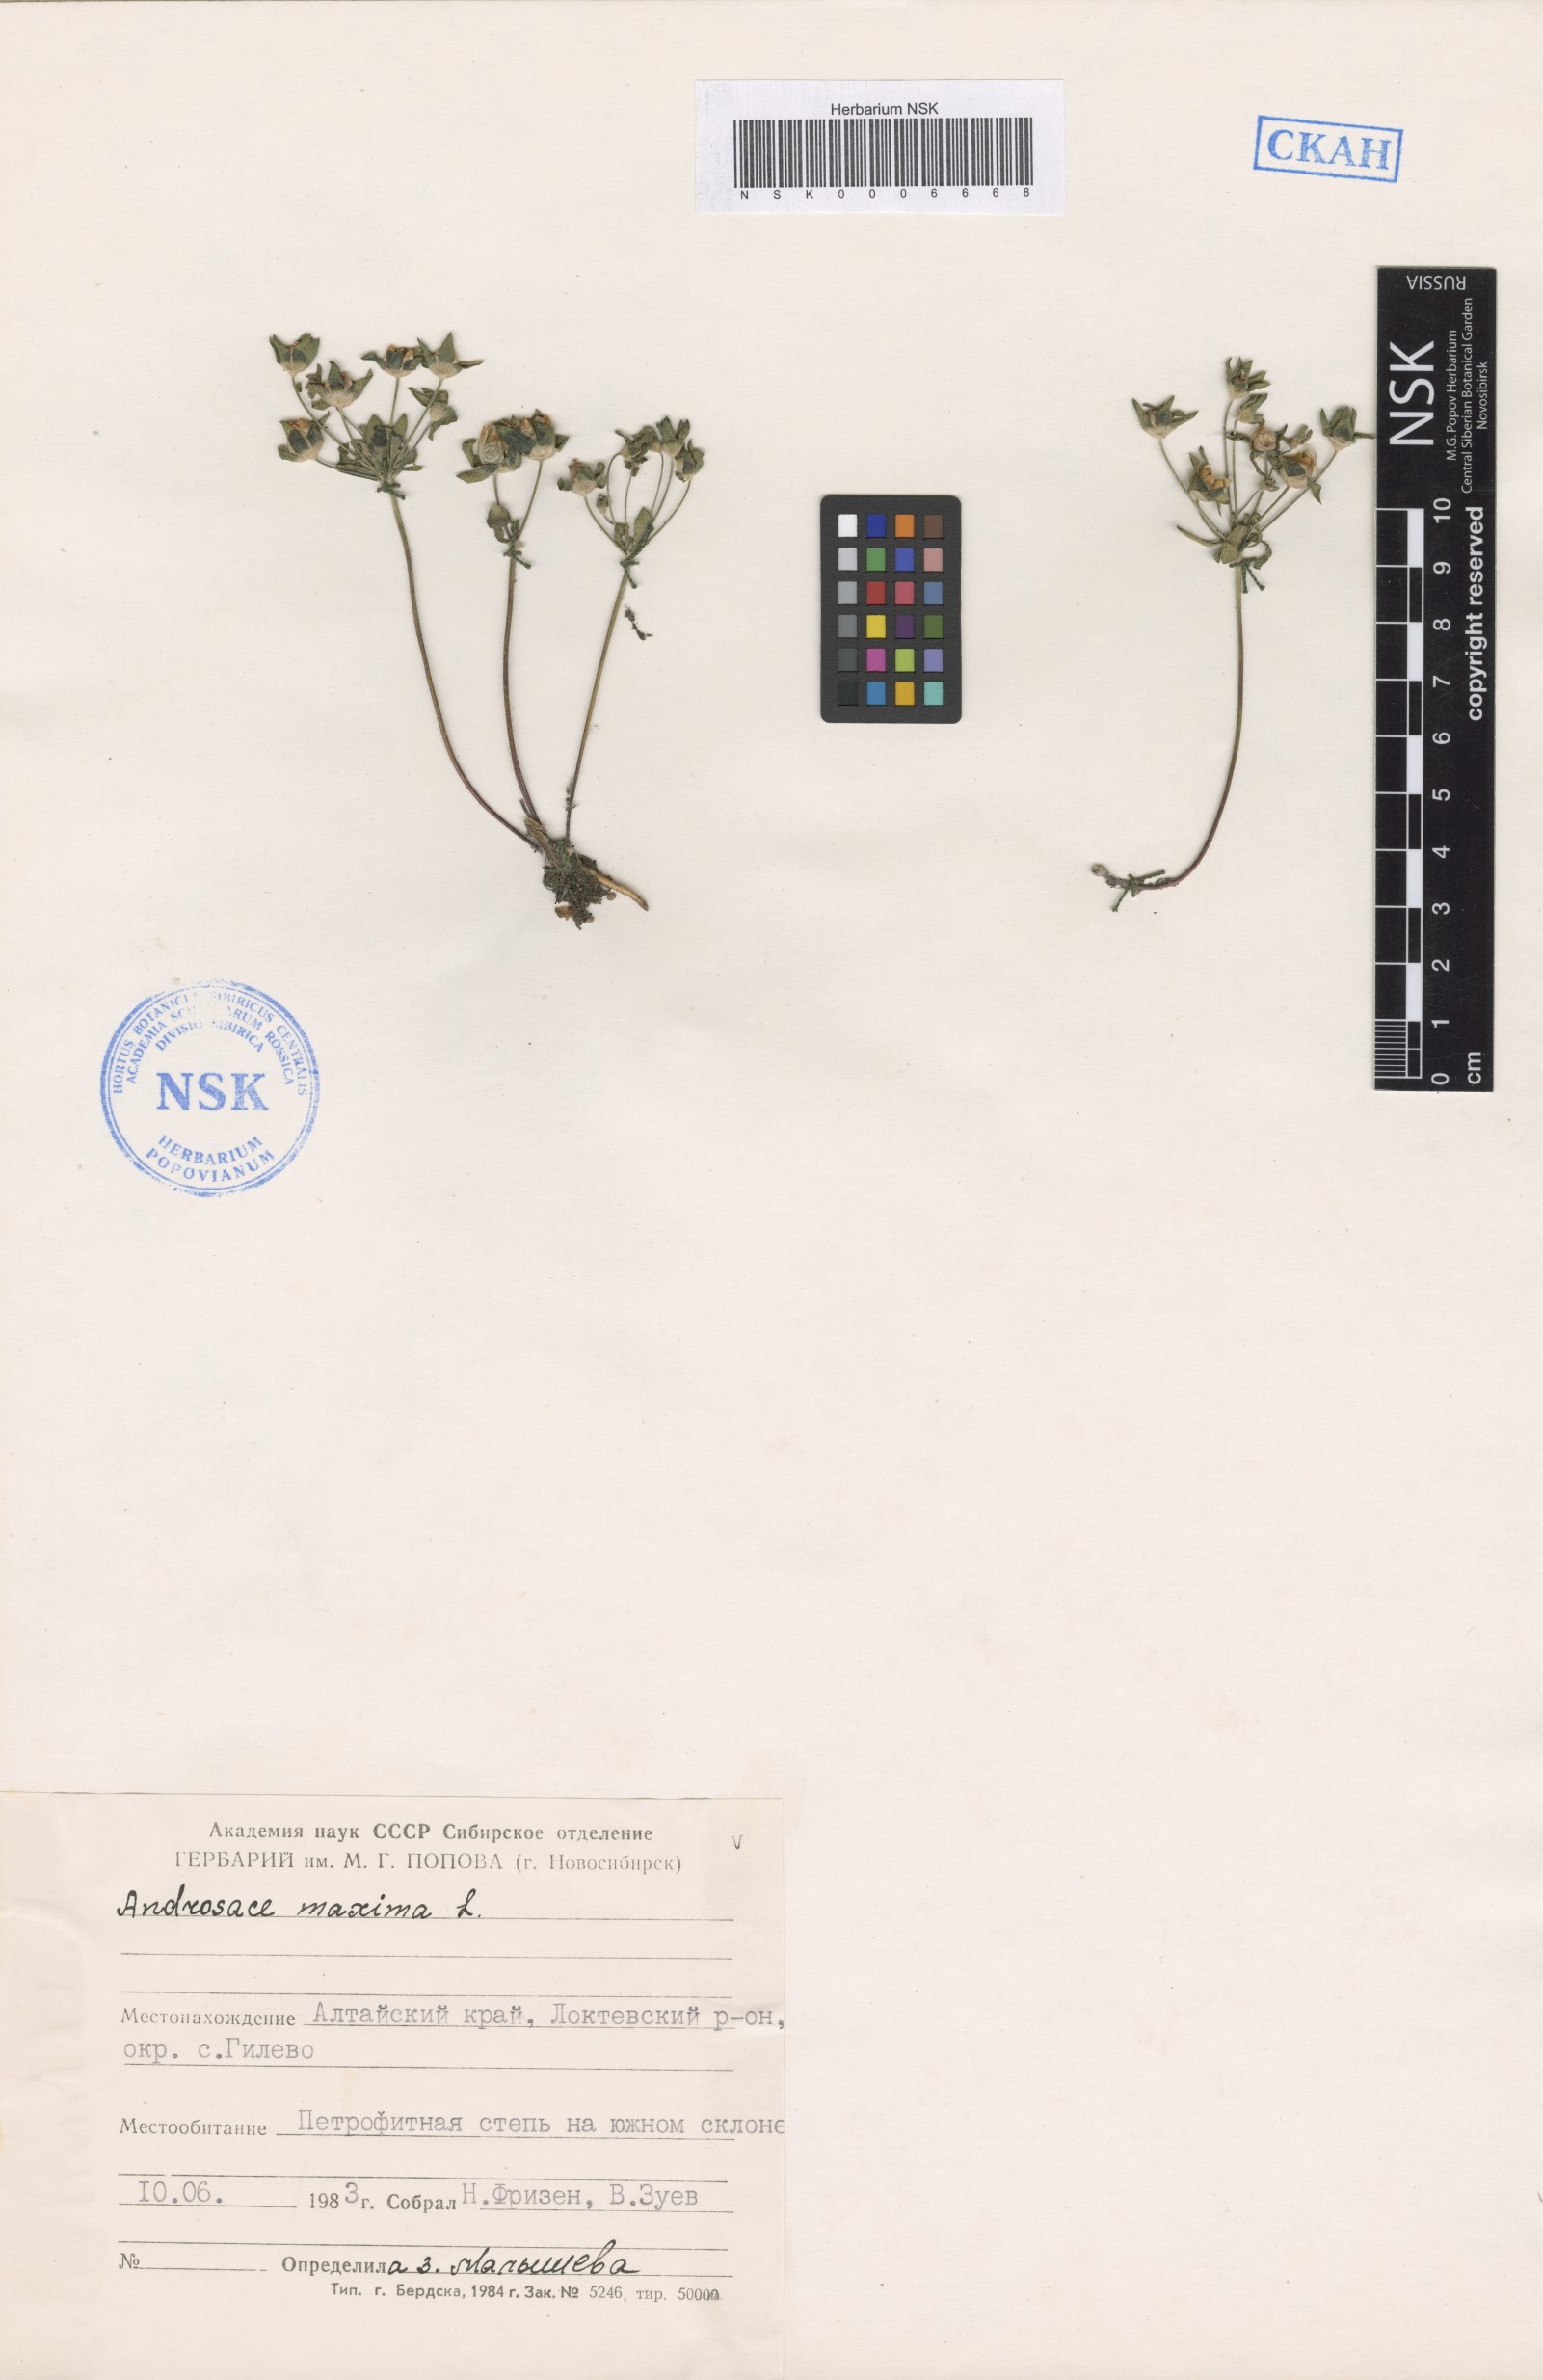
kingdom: Plantae
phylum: Tracheophyta
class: Magnoliopsida
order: Ericales
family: Primulaceae
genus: Androsace
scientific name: Androsace maxima
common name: Annual androsace
